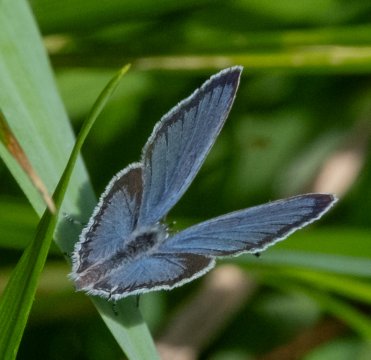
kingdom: Animalia
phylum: Arthropoda
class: Insecta
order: Lepidoptera
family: Lycaenidae
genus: Elkalyce
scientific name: Elkalyce comyntas
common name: Eastern Tailed-Blue
